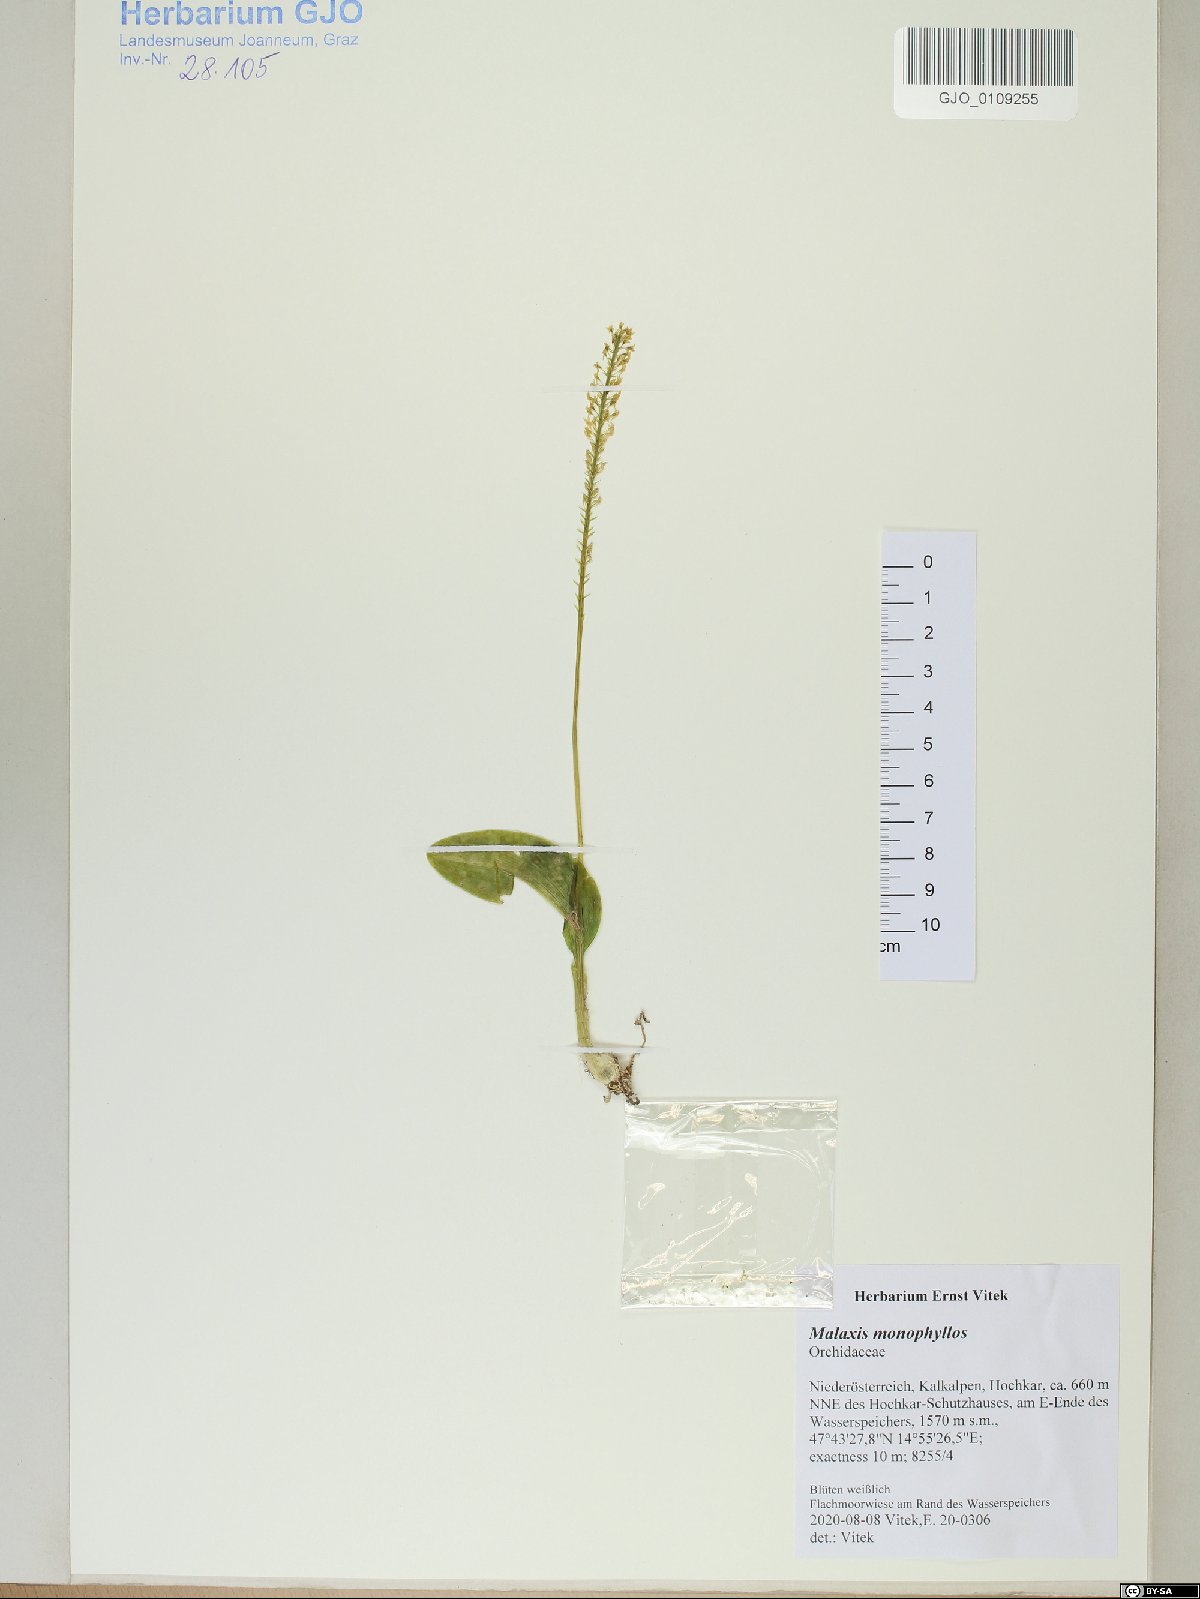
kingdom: Plantae
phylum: Tracheophyta
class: Liliopsida
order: Asparagales
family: Orchidaceae
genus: Malaxis
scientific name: Malaxis monophyllos
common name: White adder's-mouth
